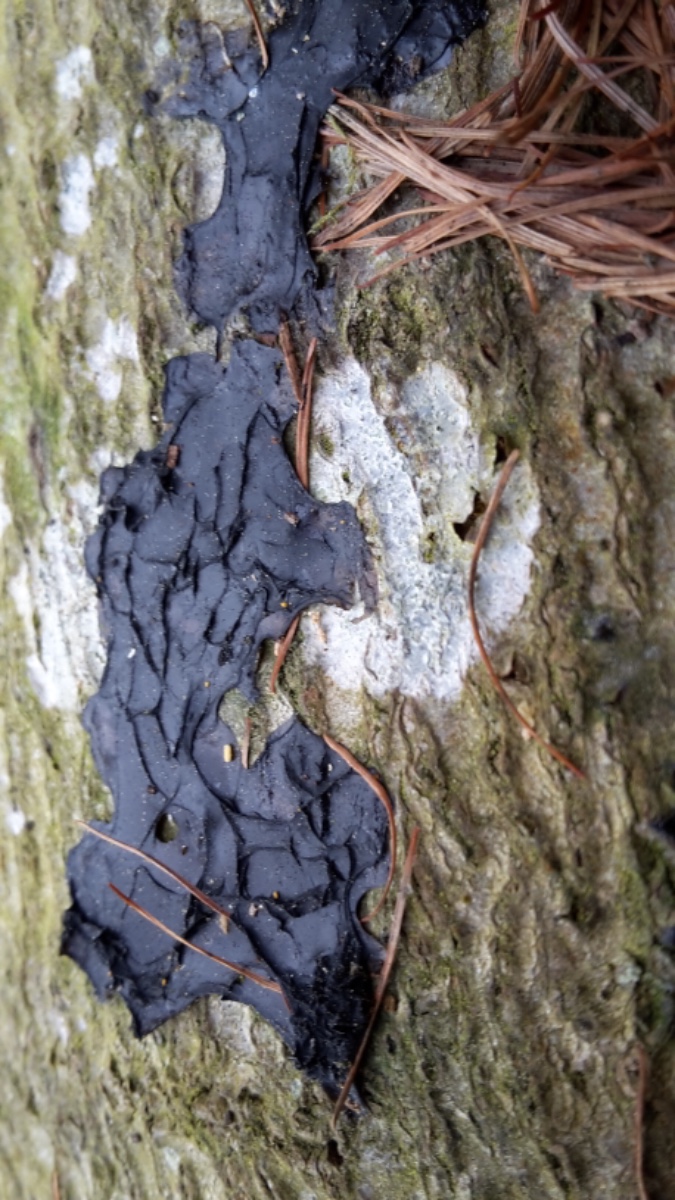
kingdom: Fungi
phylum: Basidiomycota
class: Agaricomycetes
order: Auriculariales
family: Auriculariaceae
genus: Exidia
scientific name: Exidia nigricans
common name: almindelig bævretop
